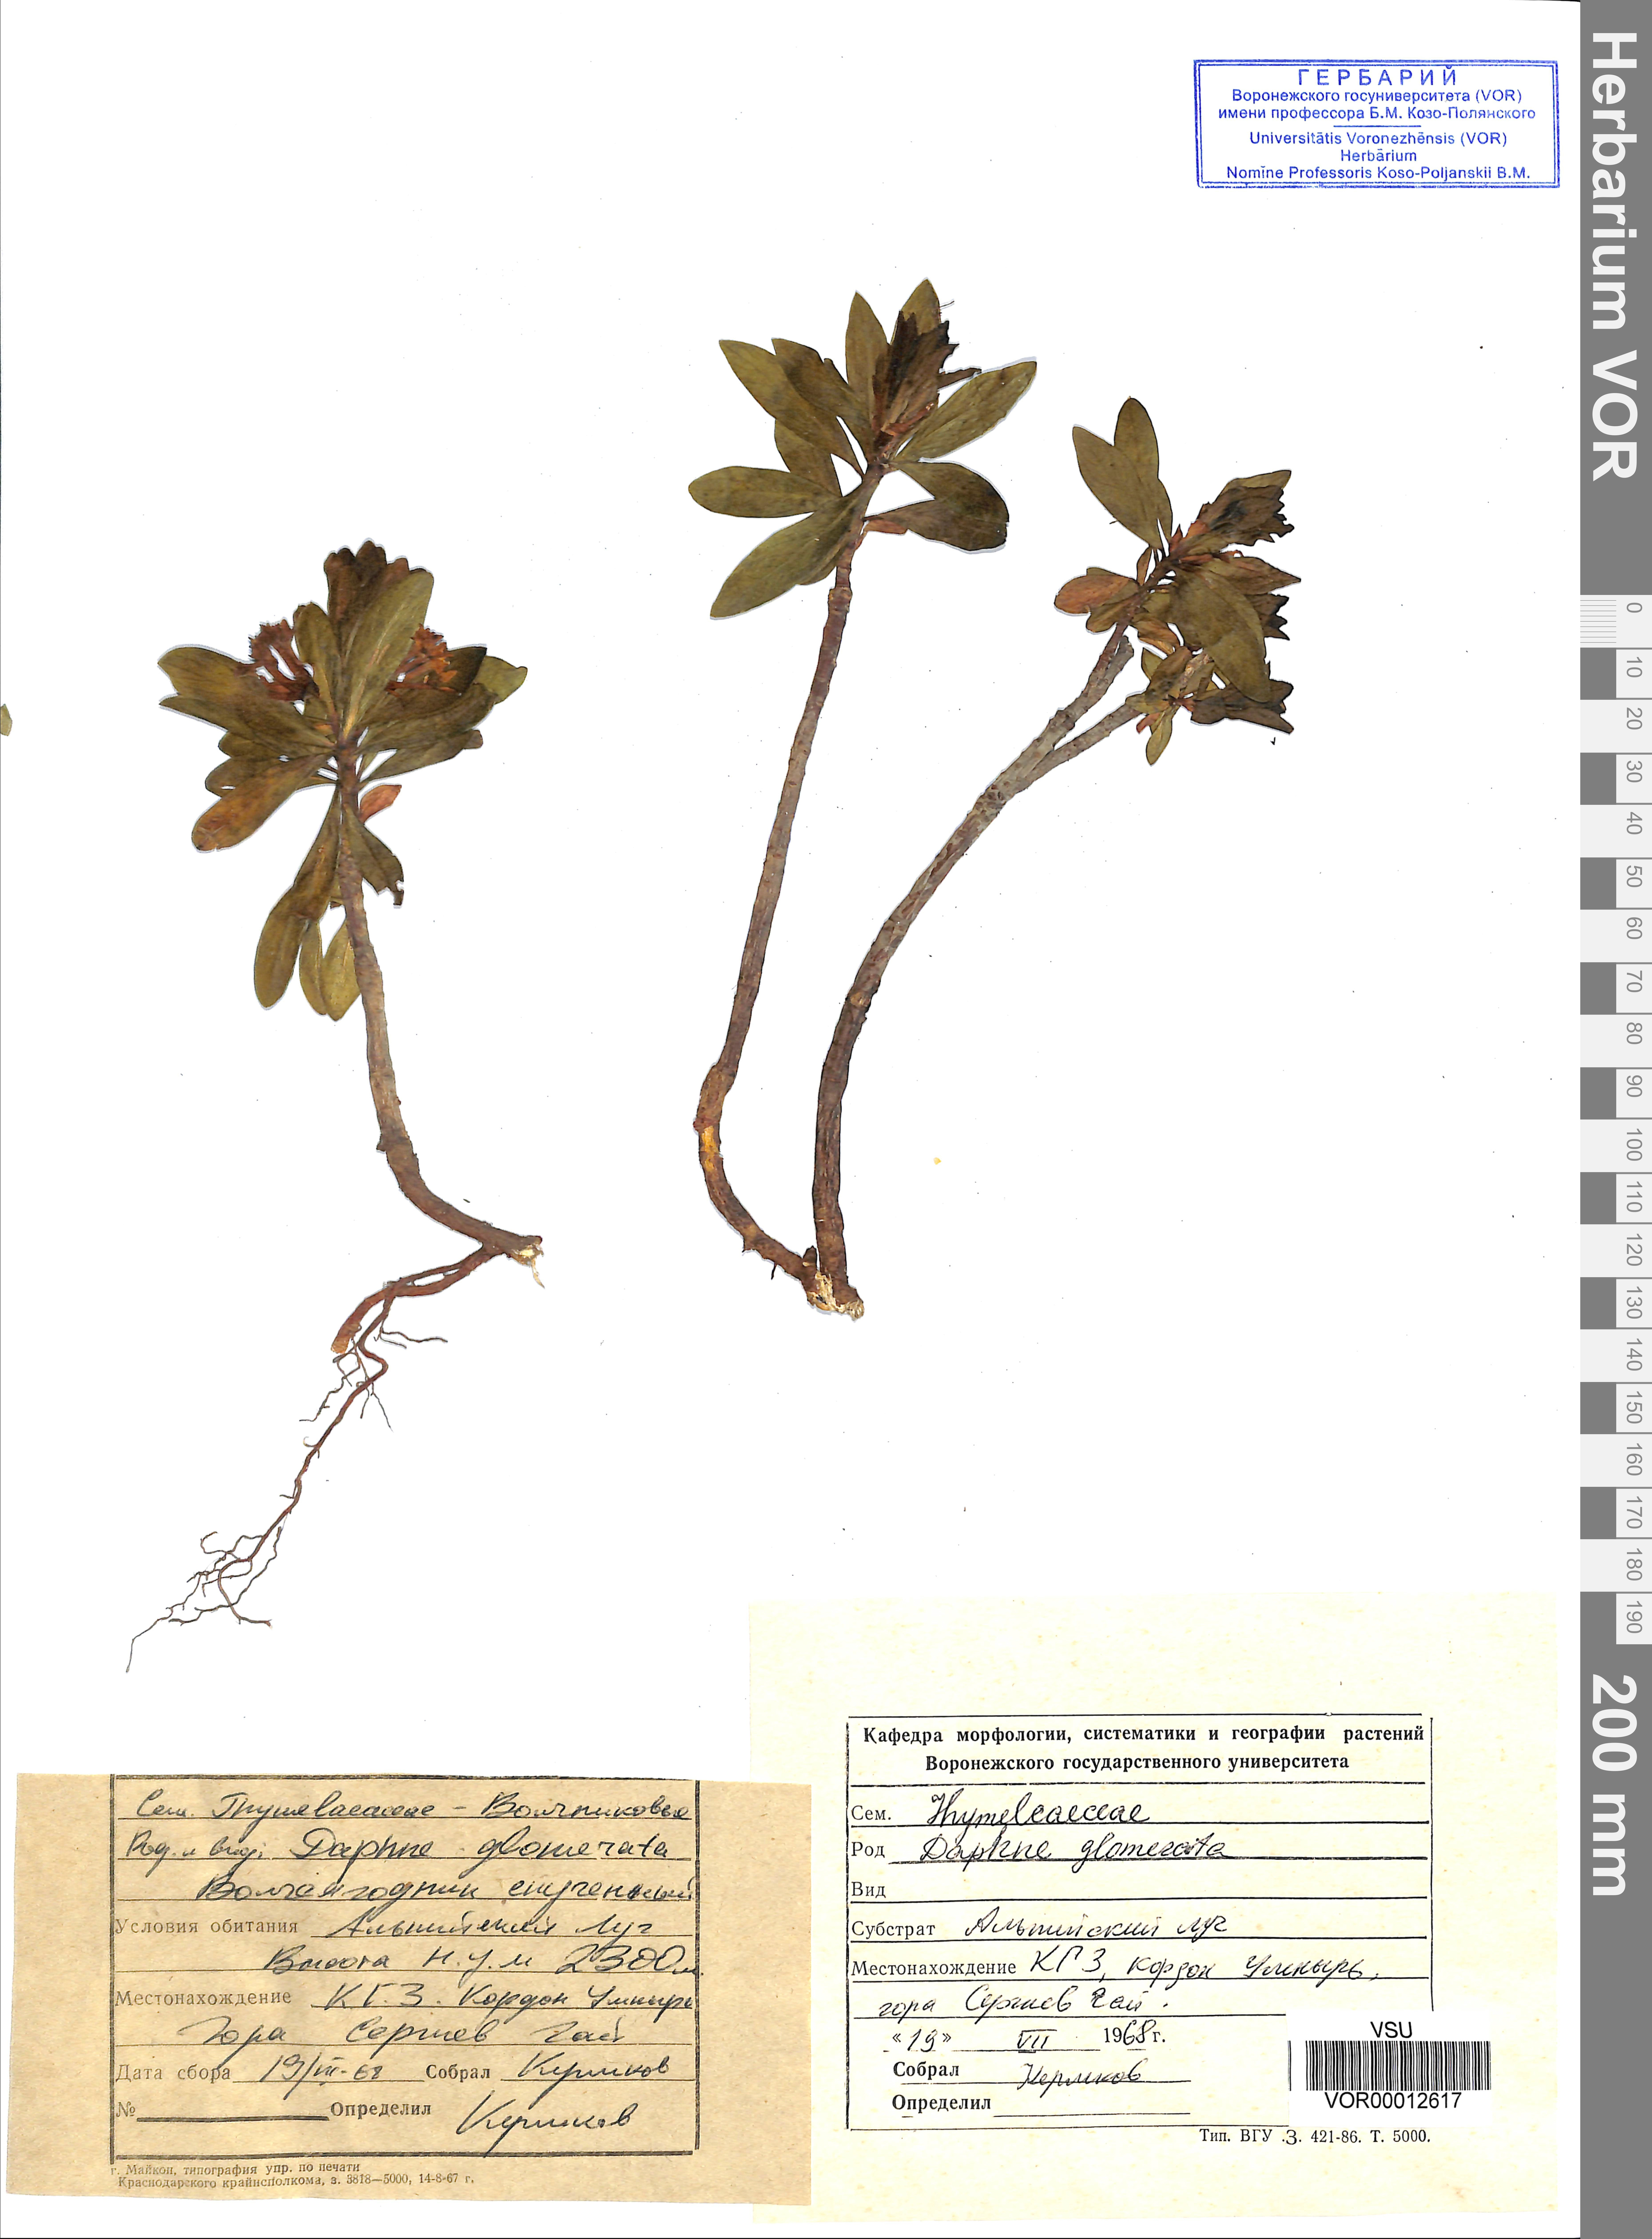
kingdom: Plantae
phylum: Tracheophyta
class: Magnoliopsida
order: Malvales
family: Thymelaeaceae
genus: Daphne
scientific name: Daphne glomerata
